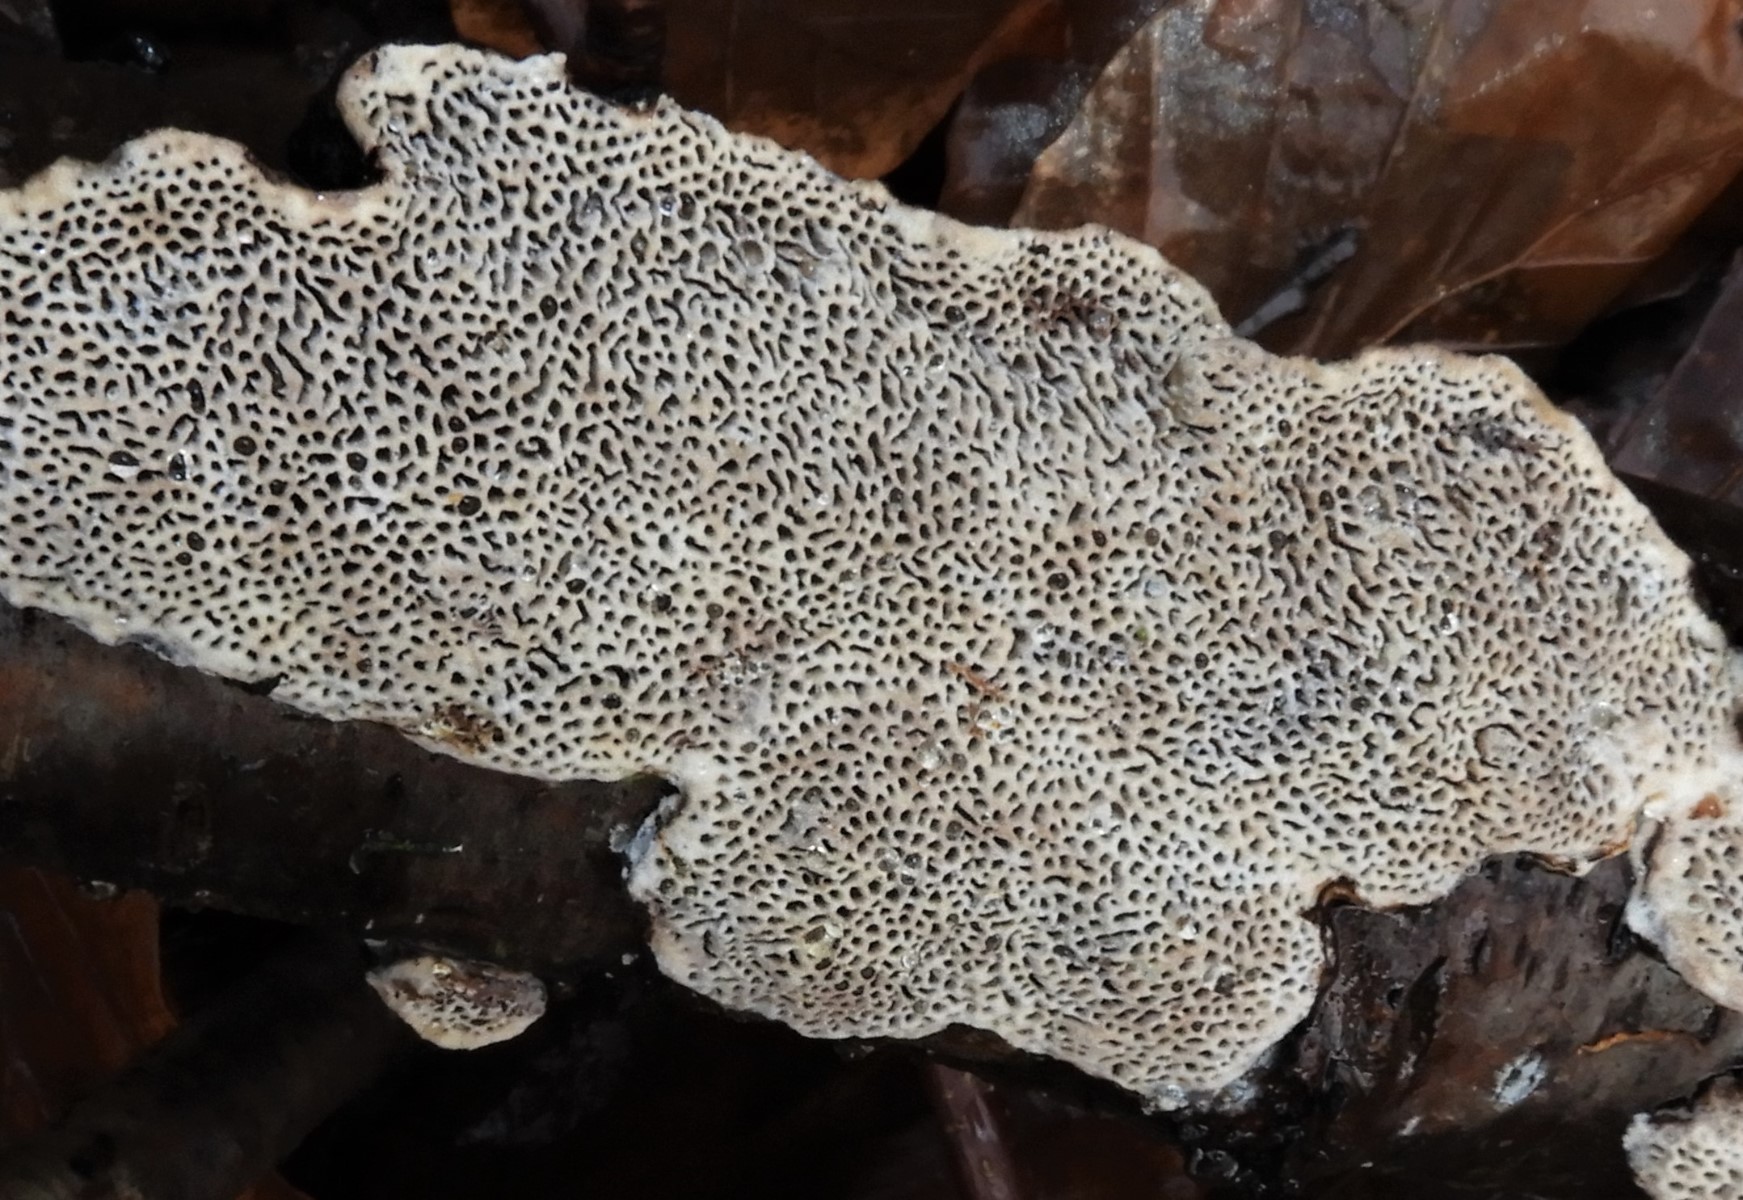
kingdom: Fungi
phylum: Basidiomycota
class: Agaricomycetes
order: Polyporales
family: Polyporaceae
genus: Podofomes
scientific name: Podofomes mollis
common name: blød begporesvamp
